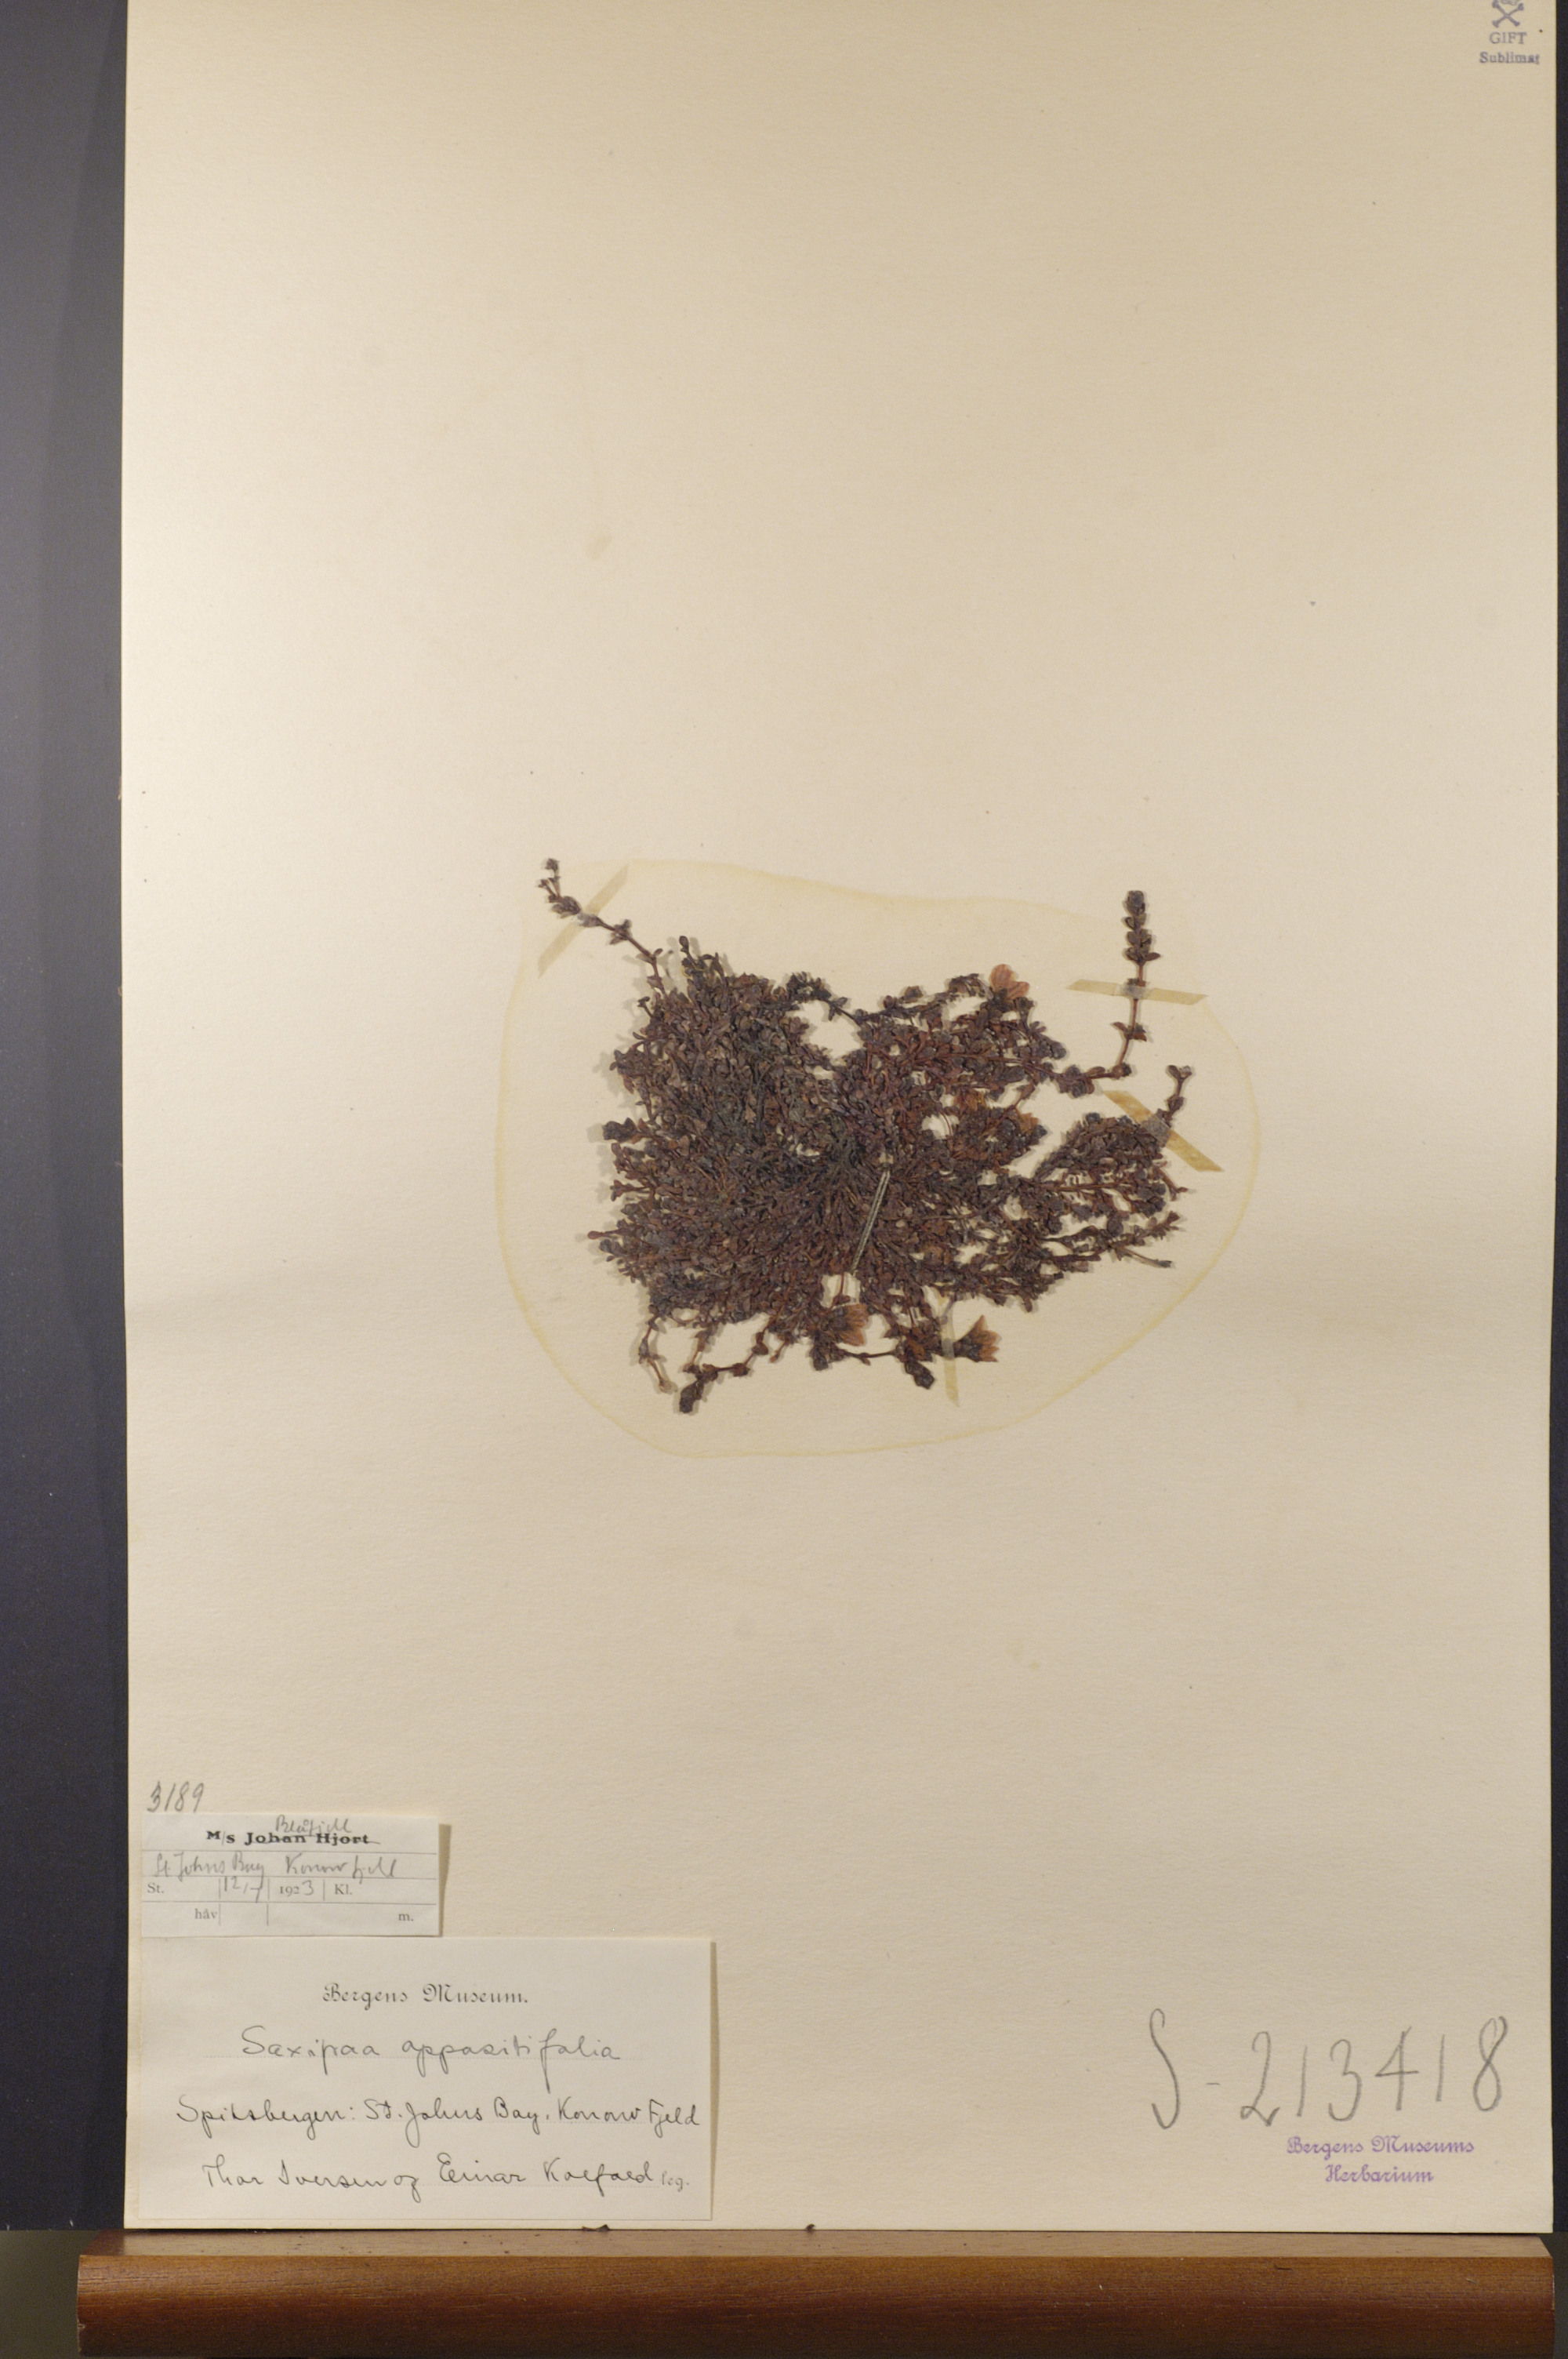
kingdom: Plantae
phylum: Tracheophyta
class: Magnoliopsida
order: Saxifragales
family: Saxifragaceae
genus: Saxifraga
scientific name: Saxifraga oppositifolia
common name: Purple saxifrage
